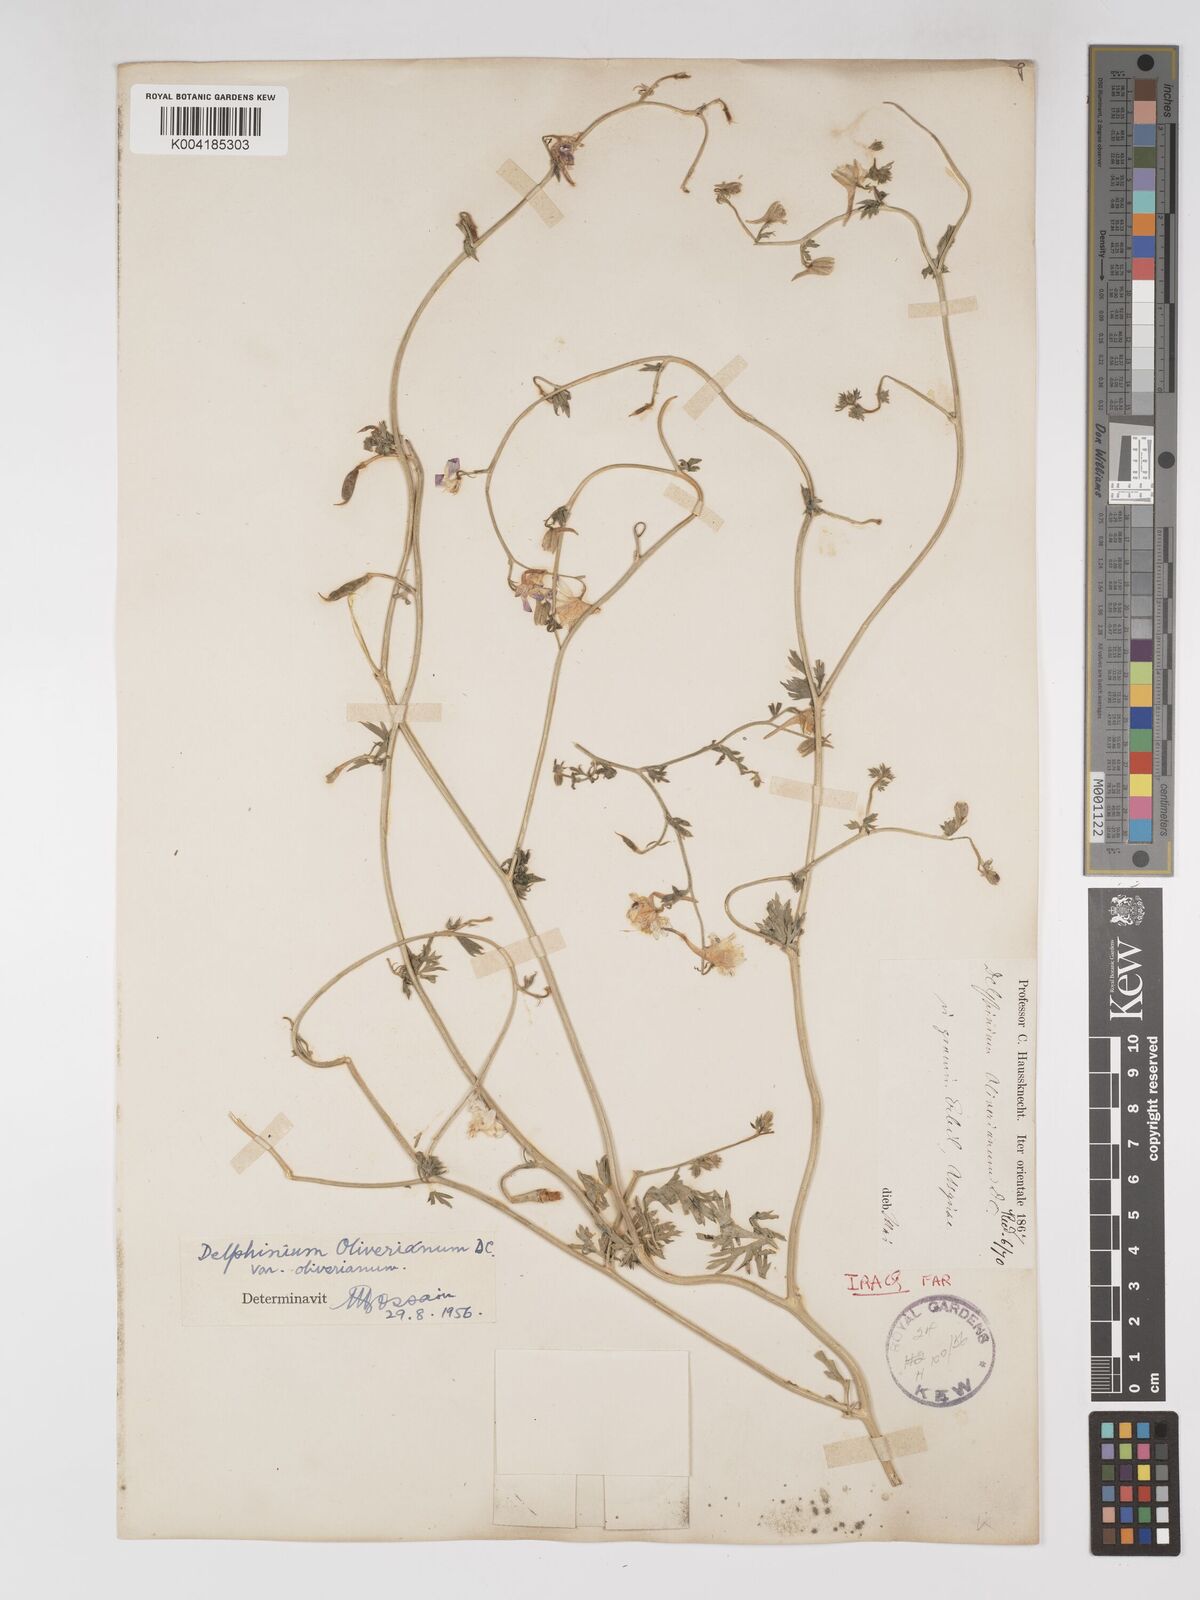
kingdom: Plantae
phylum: Tracheophyta
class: Magnoliopsida
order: Ranunculales
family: Ranunculaceae
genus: Delphinium
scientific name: Delphinium oliverianum
